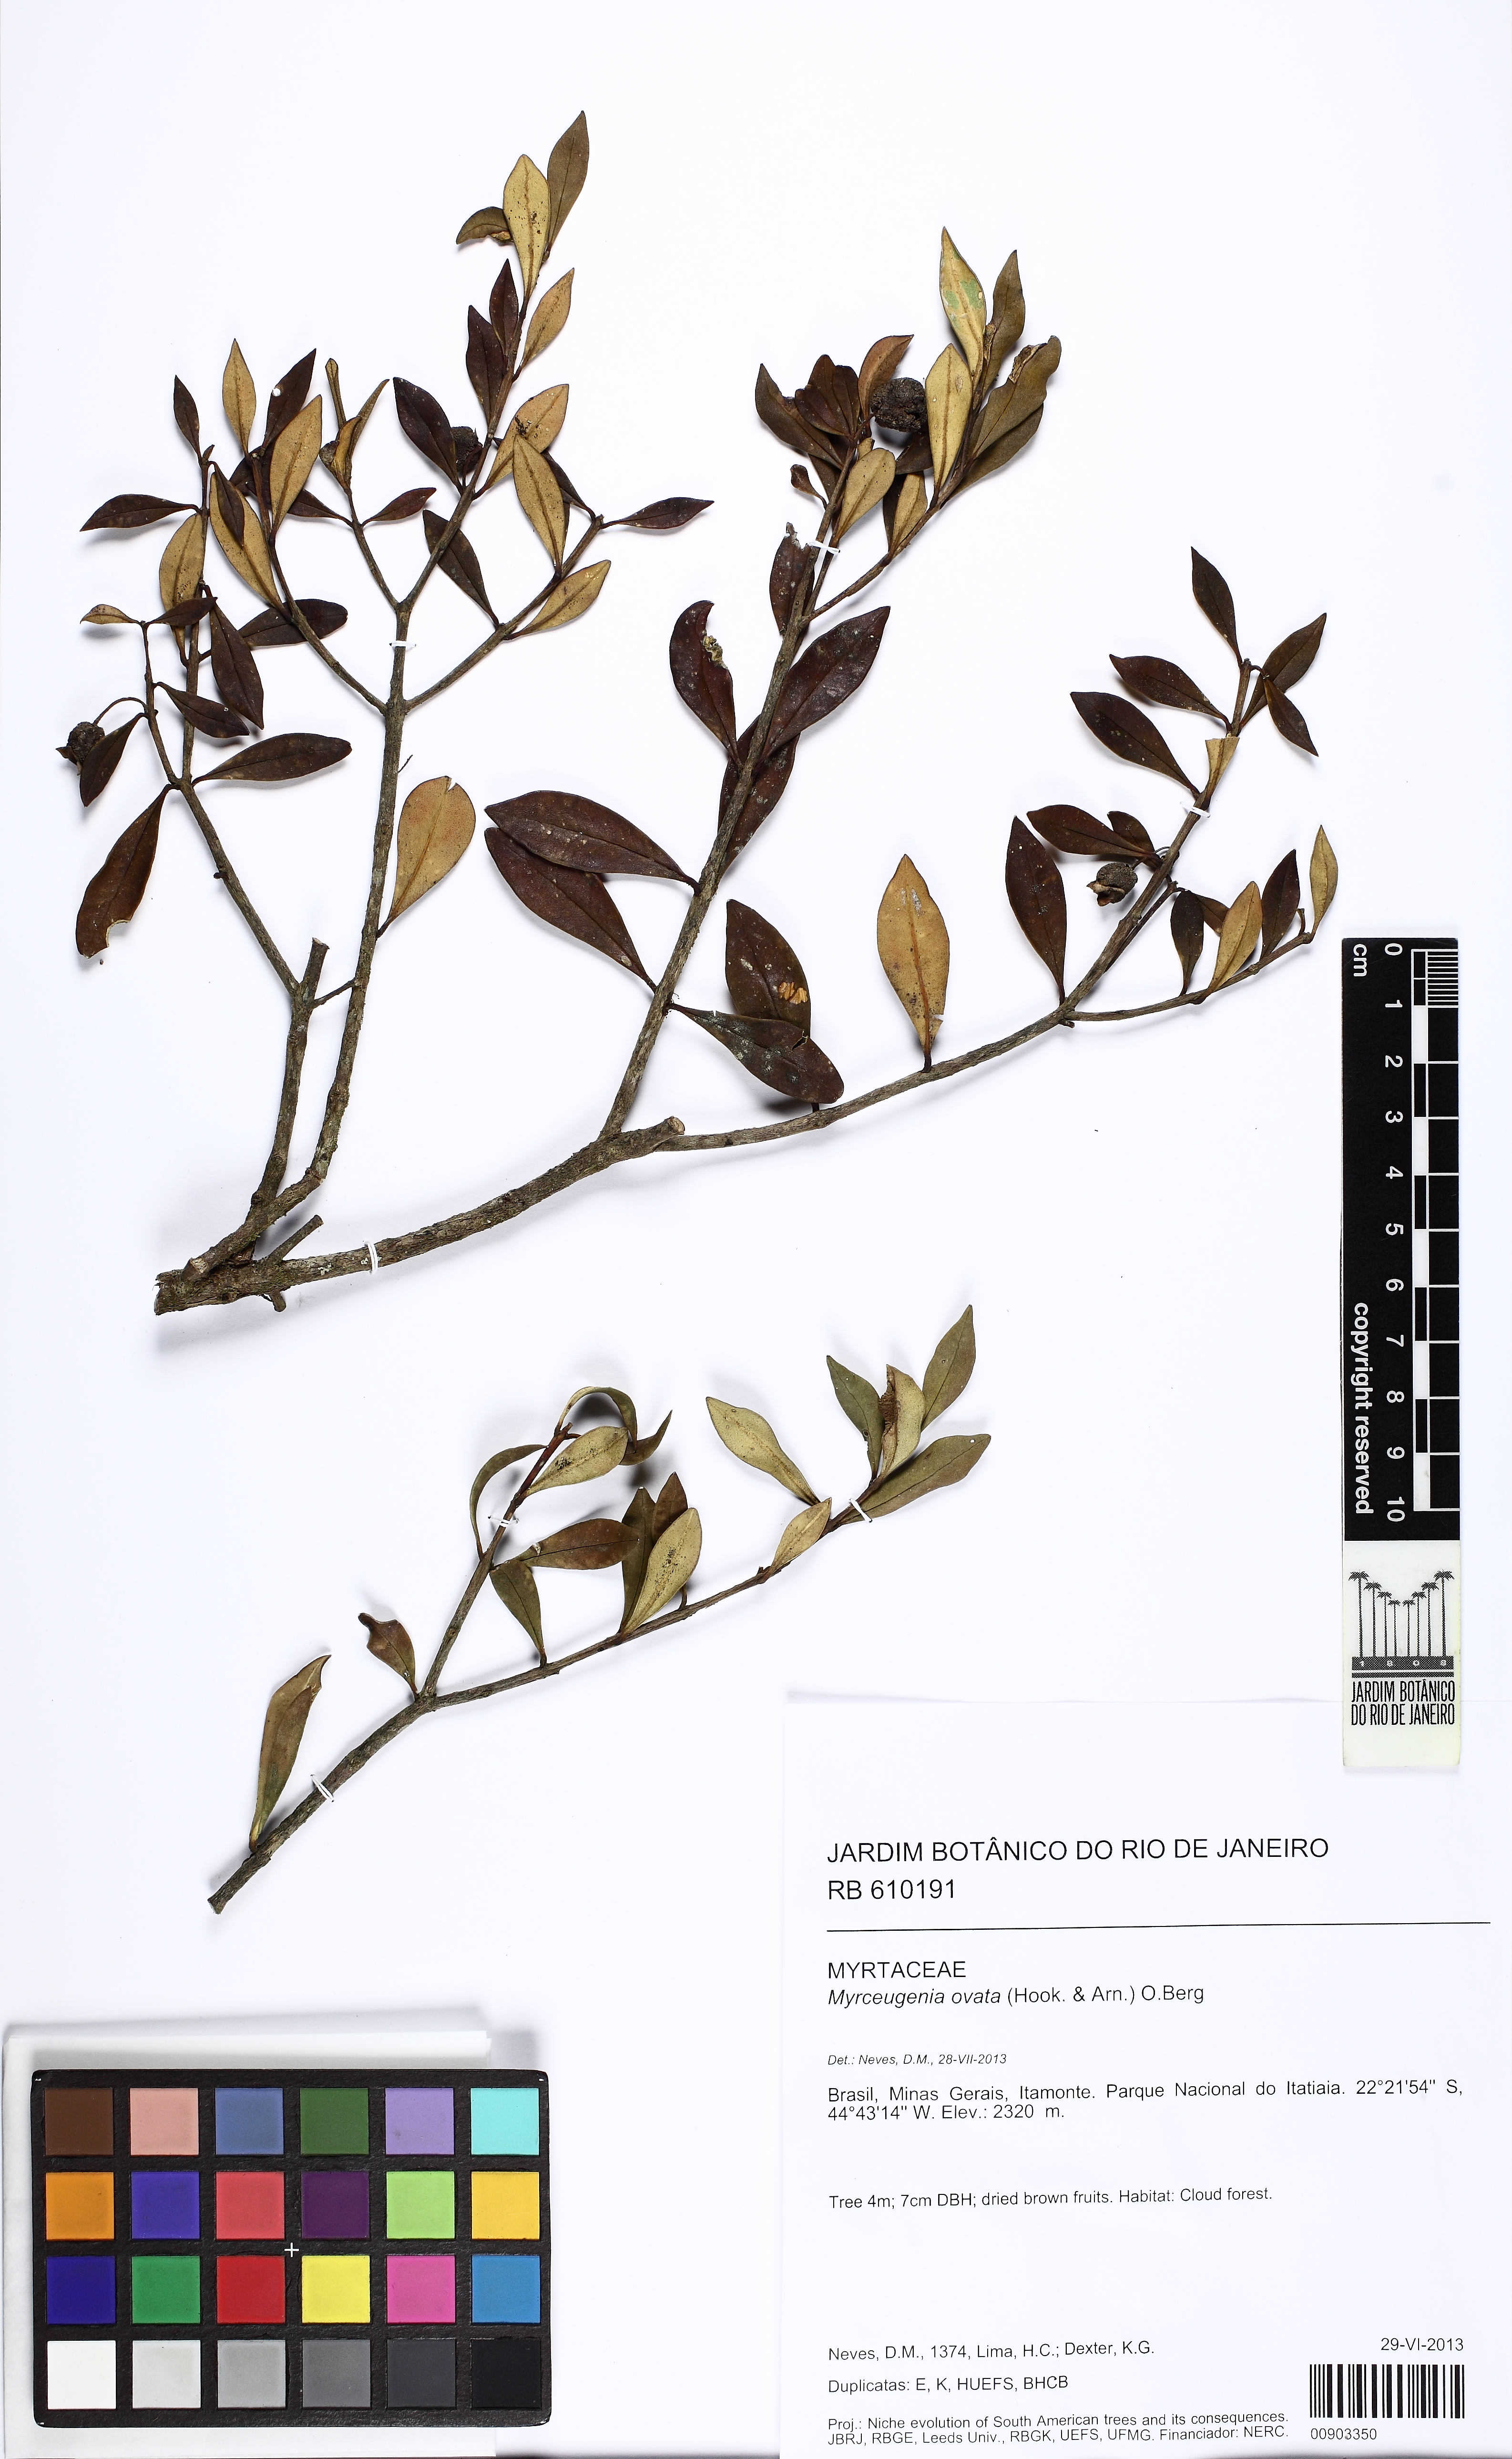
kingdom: Plantae
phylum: Tracheophyta
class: Magnoliopsida
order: Myrtales
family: Myrtaceae
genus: Myrceugenia
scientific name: Myrceugenia ovata
